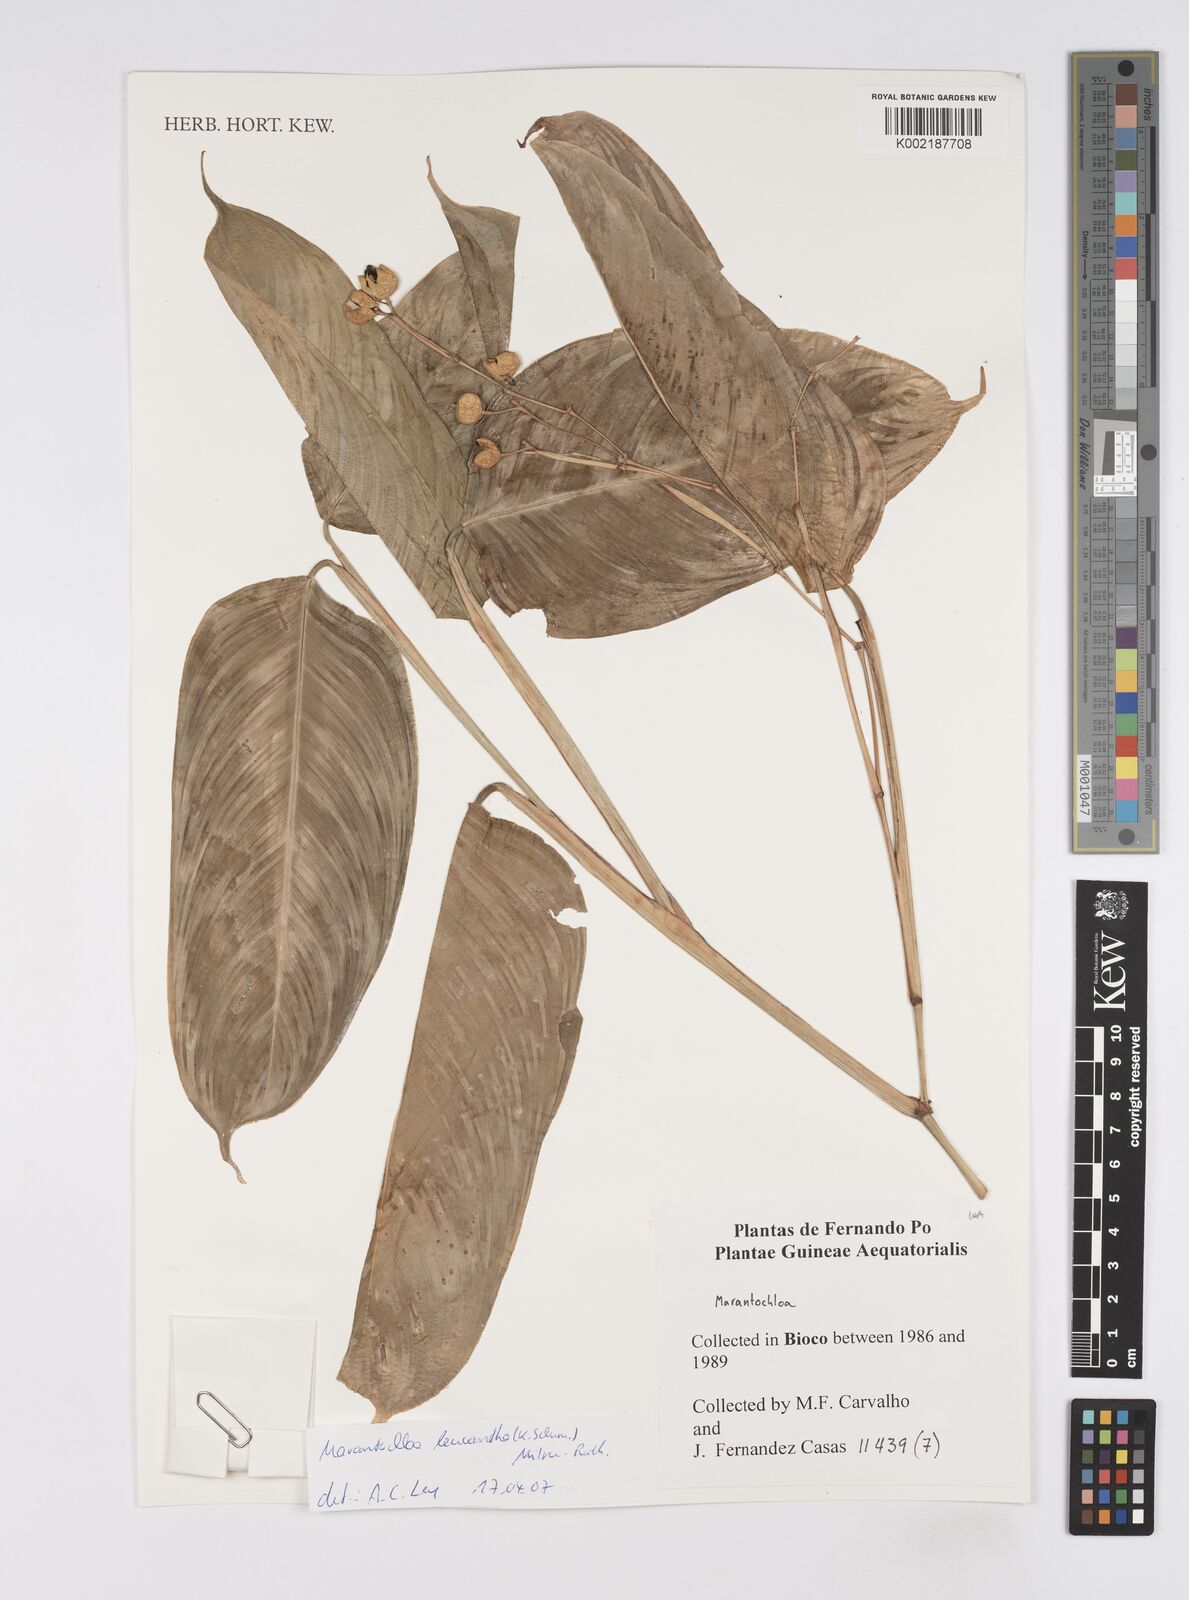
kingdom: Plantae
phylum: Tracheophyta
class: Liliopsida
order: Zingiberales
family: Marantaceae
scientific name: Marantaceae
